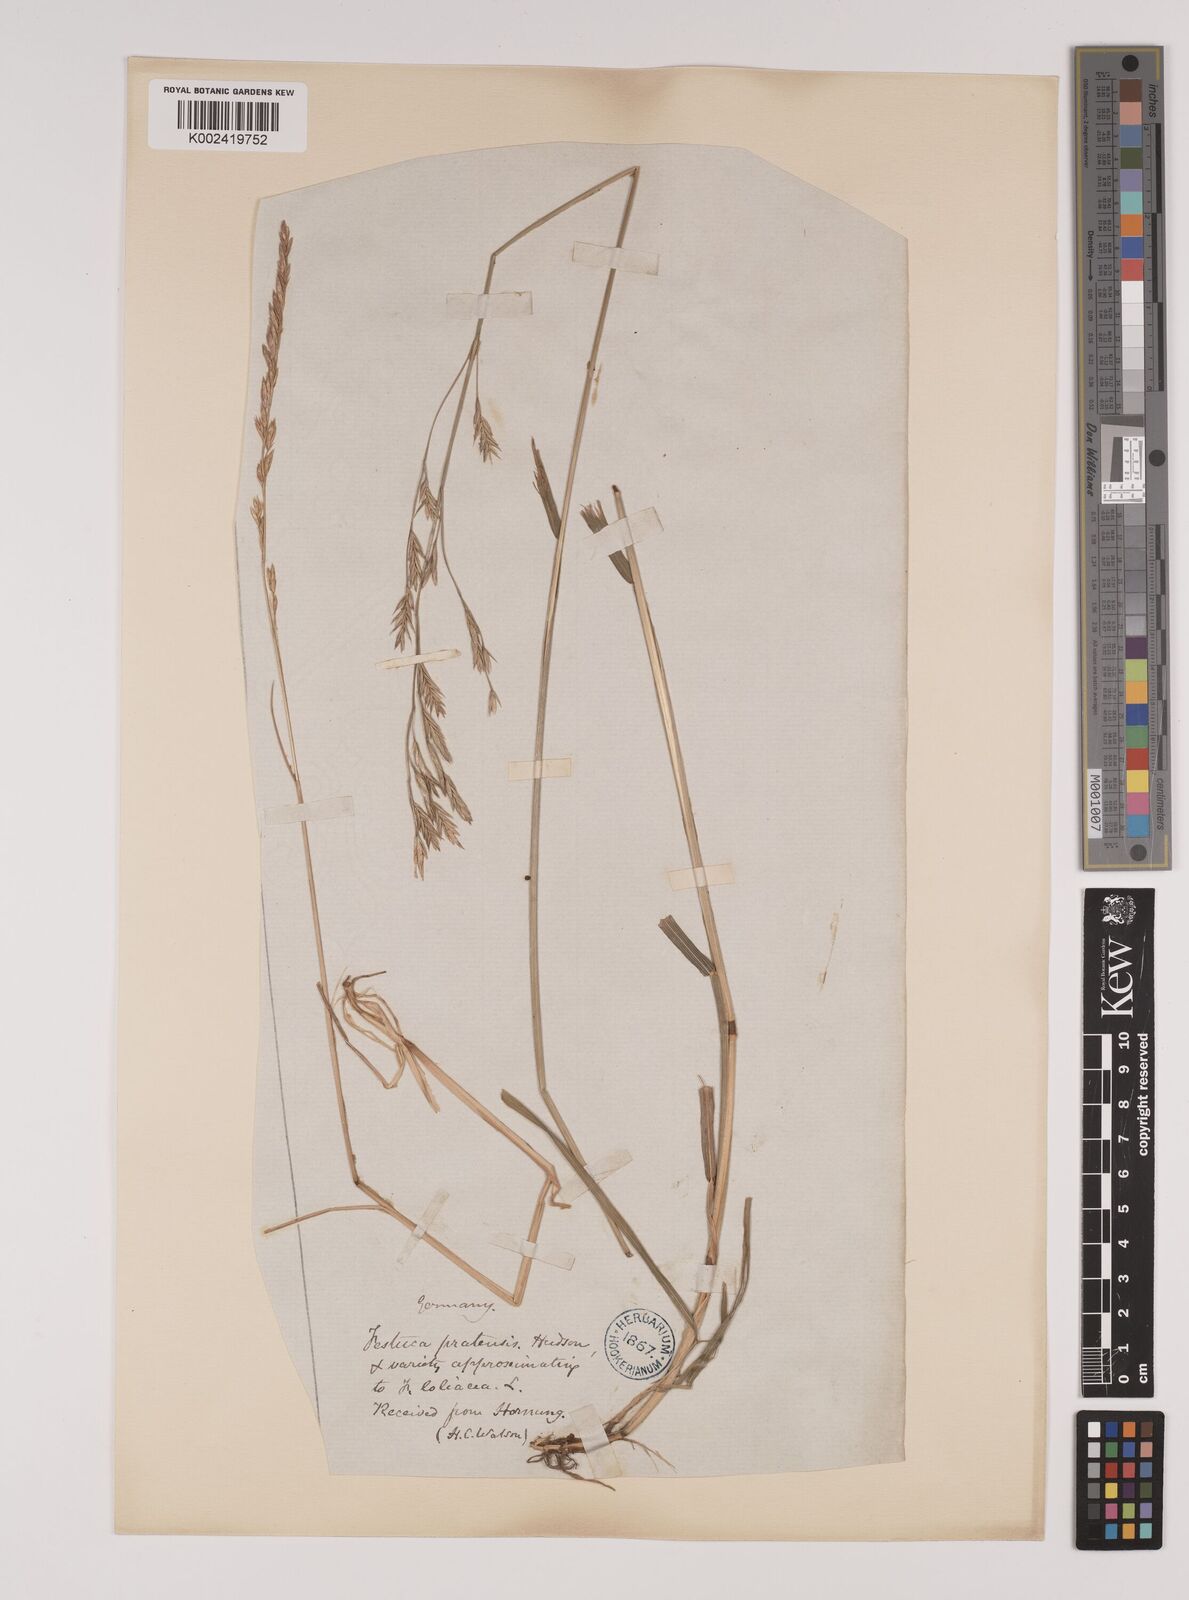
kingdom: Plantae
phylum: Tracheophyta
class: Liliopsida
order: Poales
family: Poaceae
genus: Lolium
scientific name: Lolium pratense
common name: Dover grass
